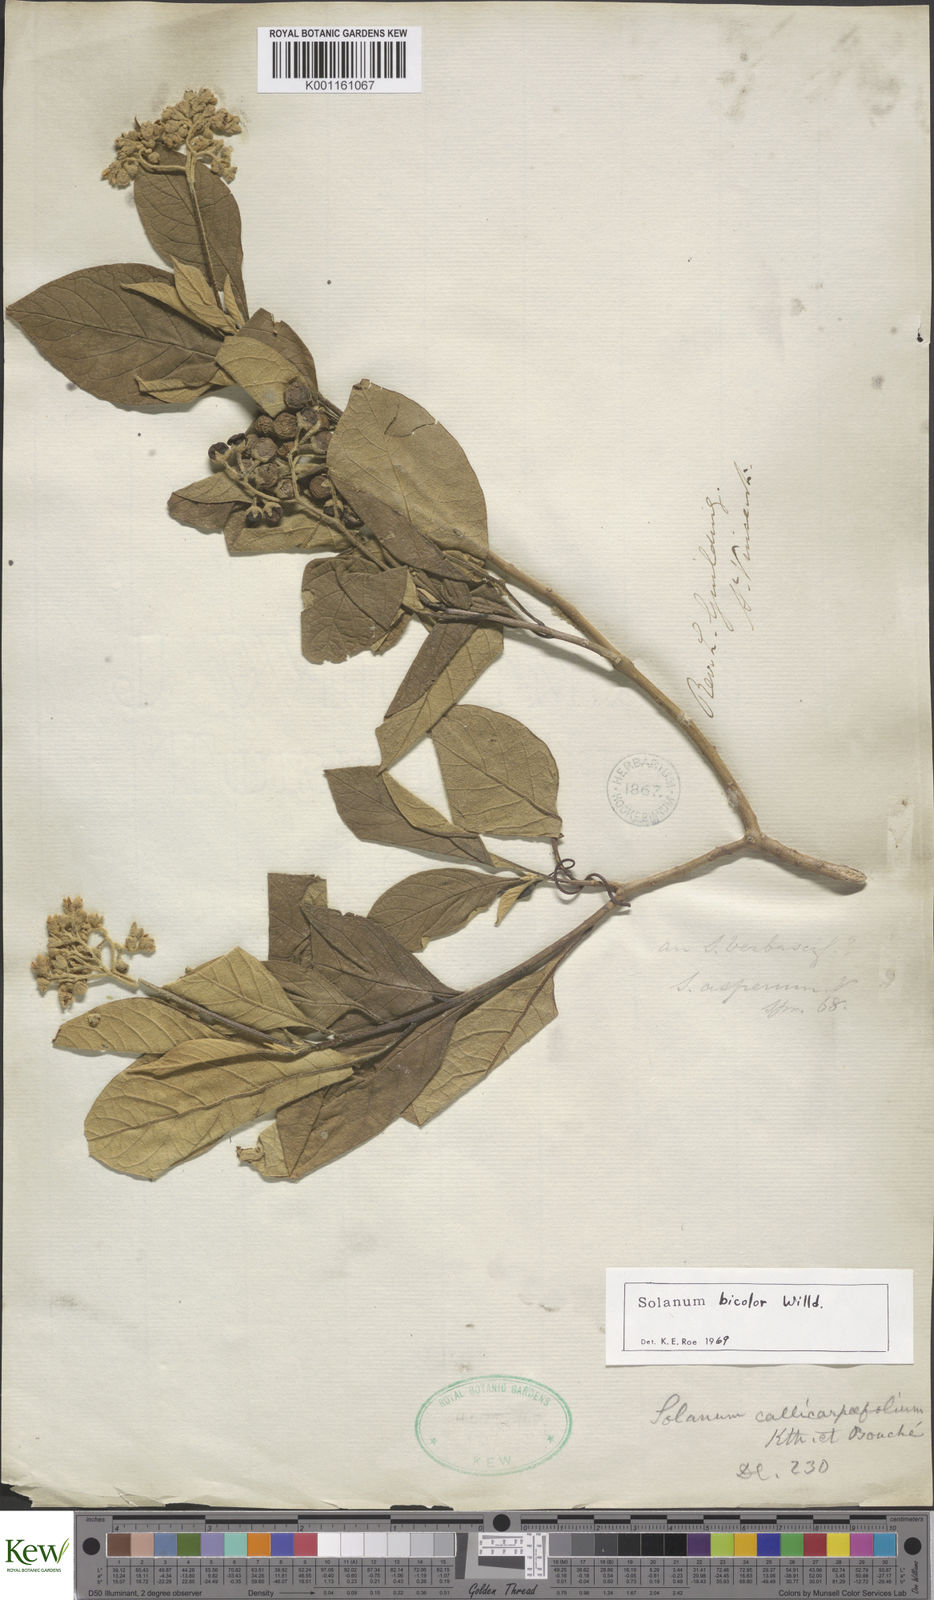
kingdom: Plantae
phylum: Tracheophyta
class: Magnoliopsida
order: Solanales
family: Solanaceae
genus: Solanum
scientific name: Solanum bicolor
